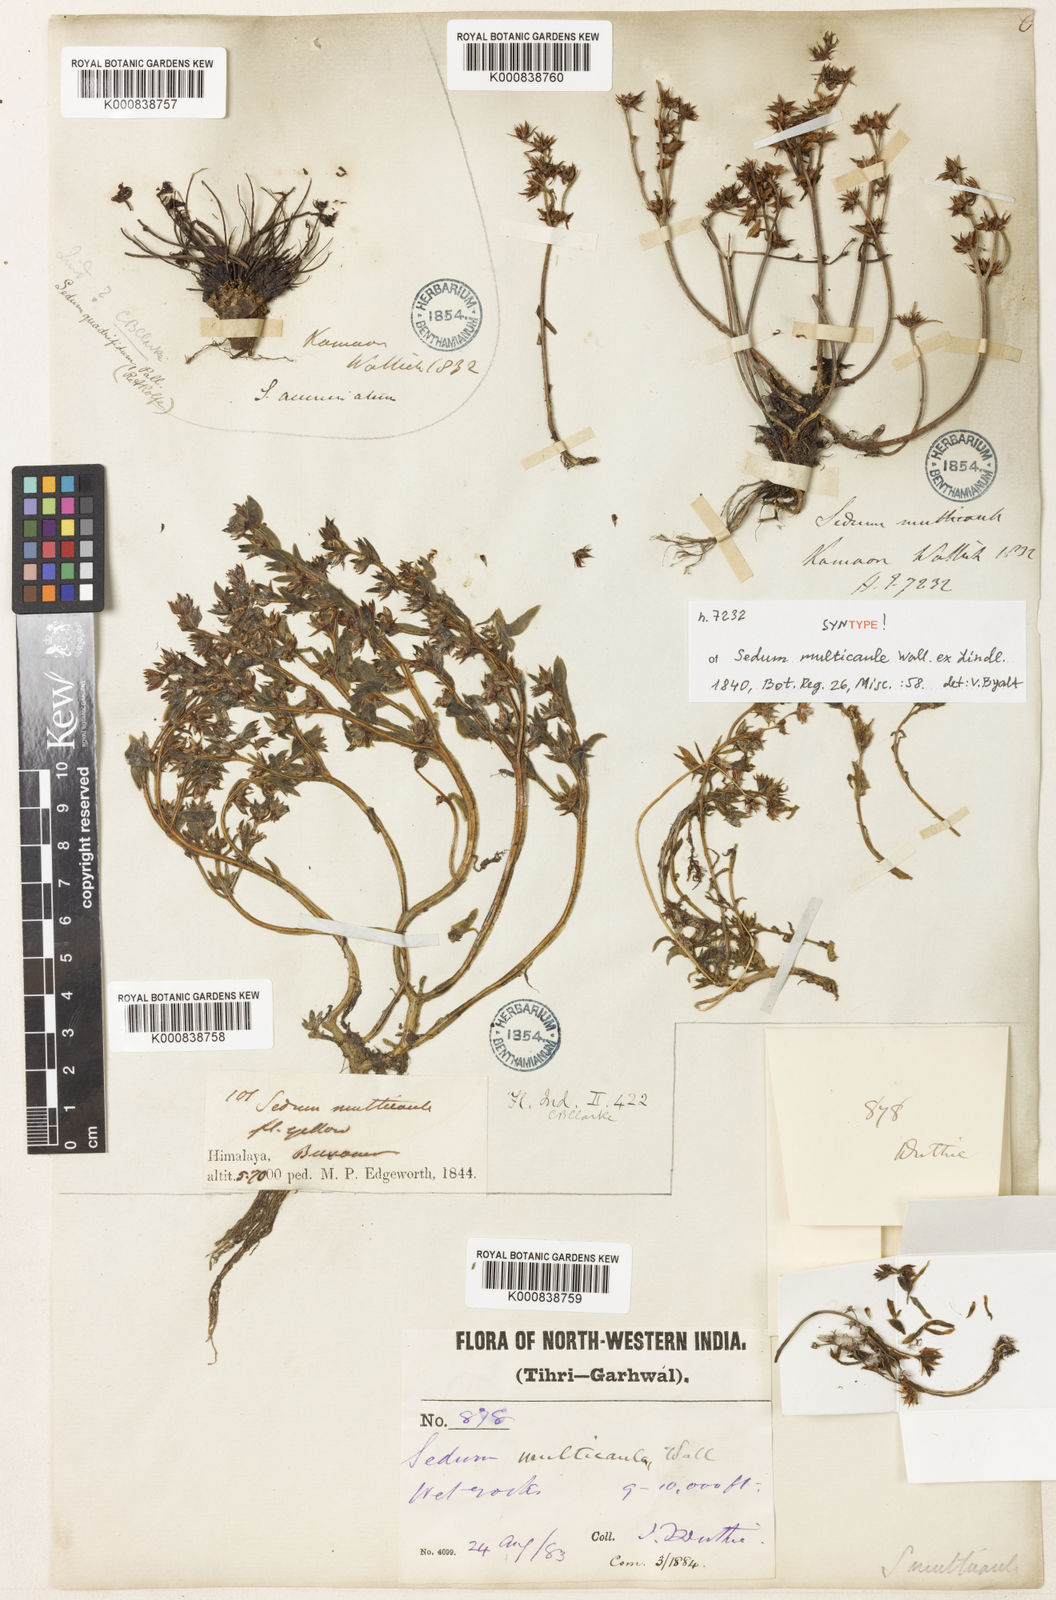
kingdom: Plantae
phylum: Tracheophyta
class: Magnoliopsida
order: Saxifragales
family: Crassulaceae
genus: Sedum
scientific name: Sedum multicaule
